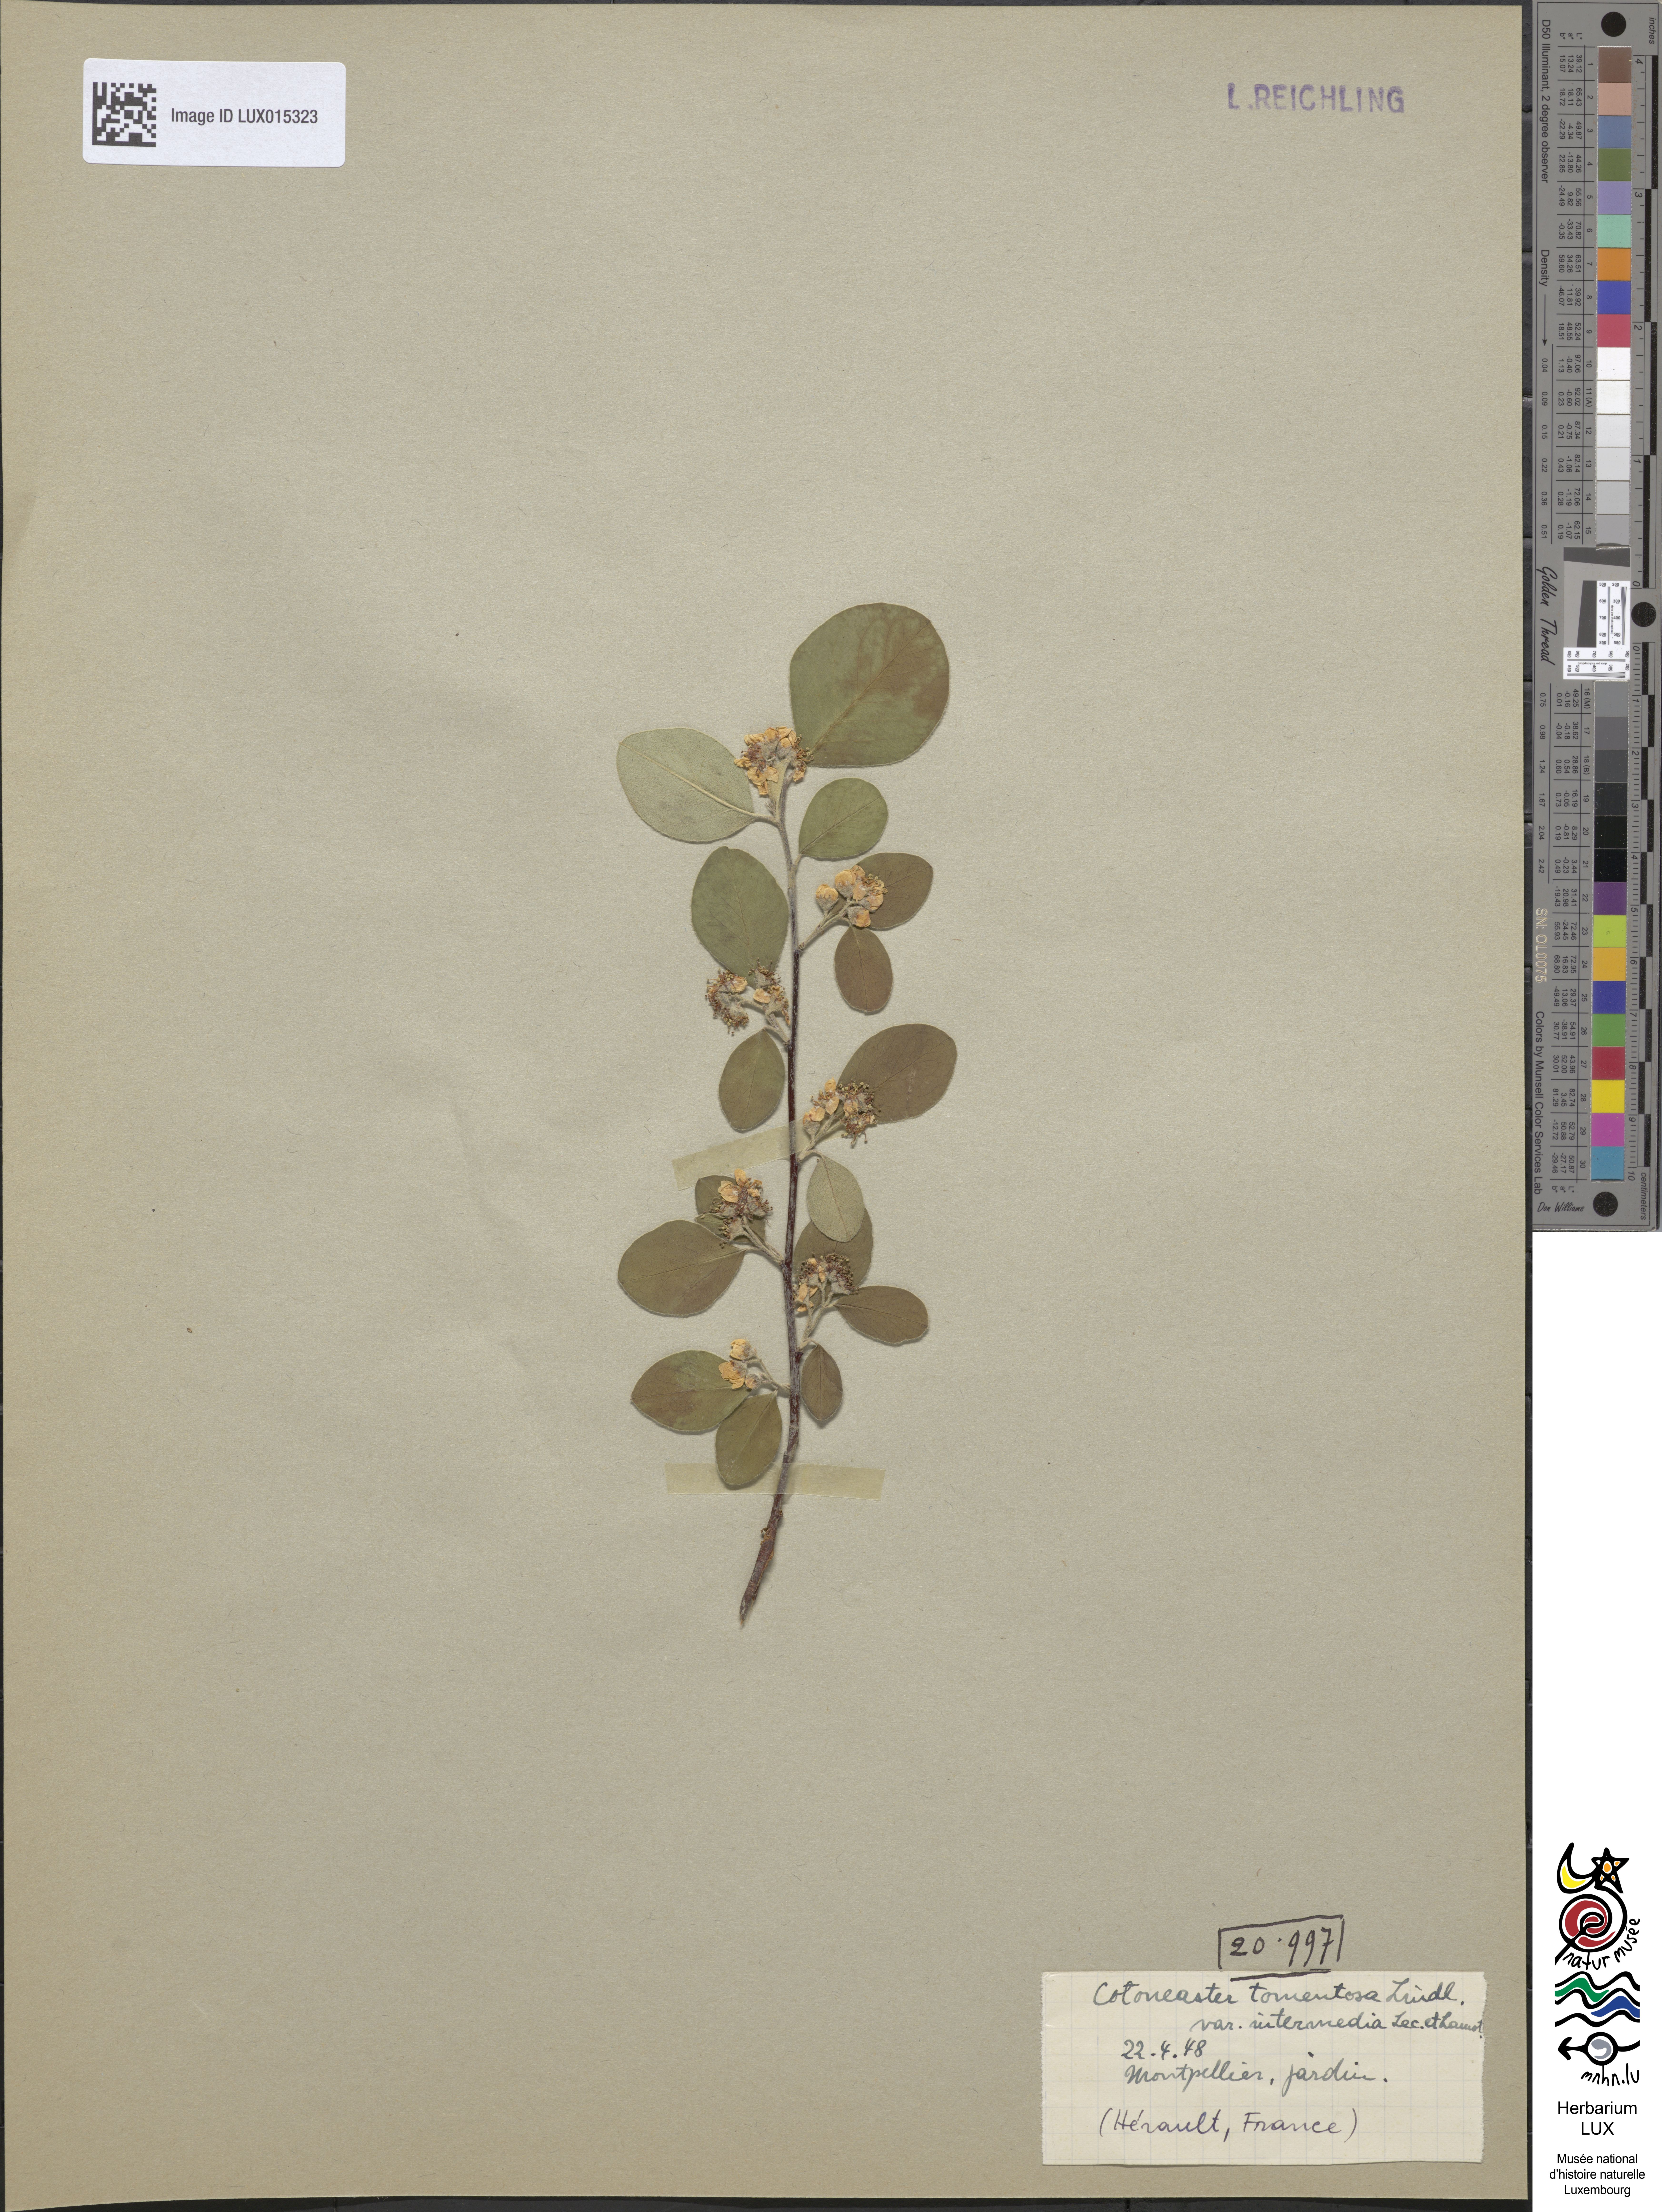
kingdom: Plantae
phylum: Tracheophyta
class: Magnoliopsida
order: Rosales
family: Rosaceae
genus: Cotoneaster
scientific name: Cotoneaster granatensis
